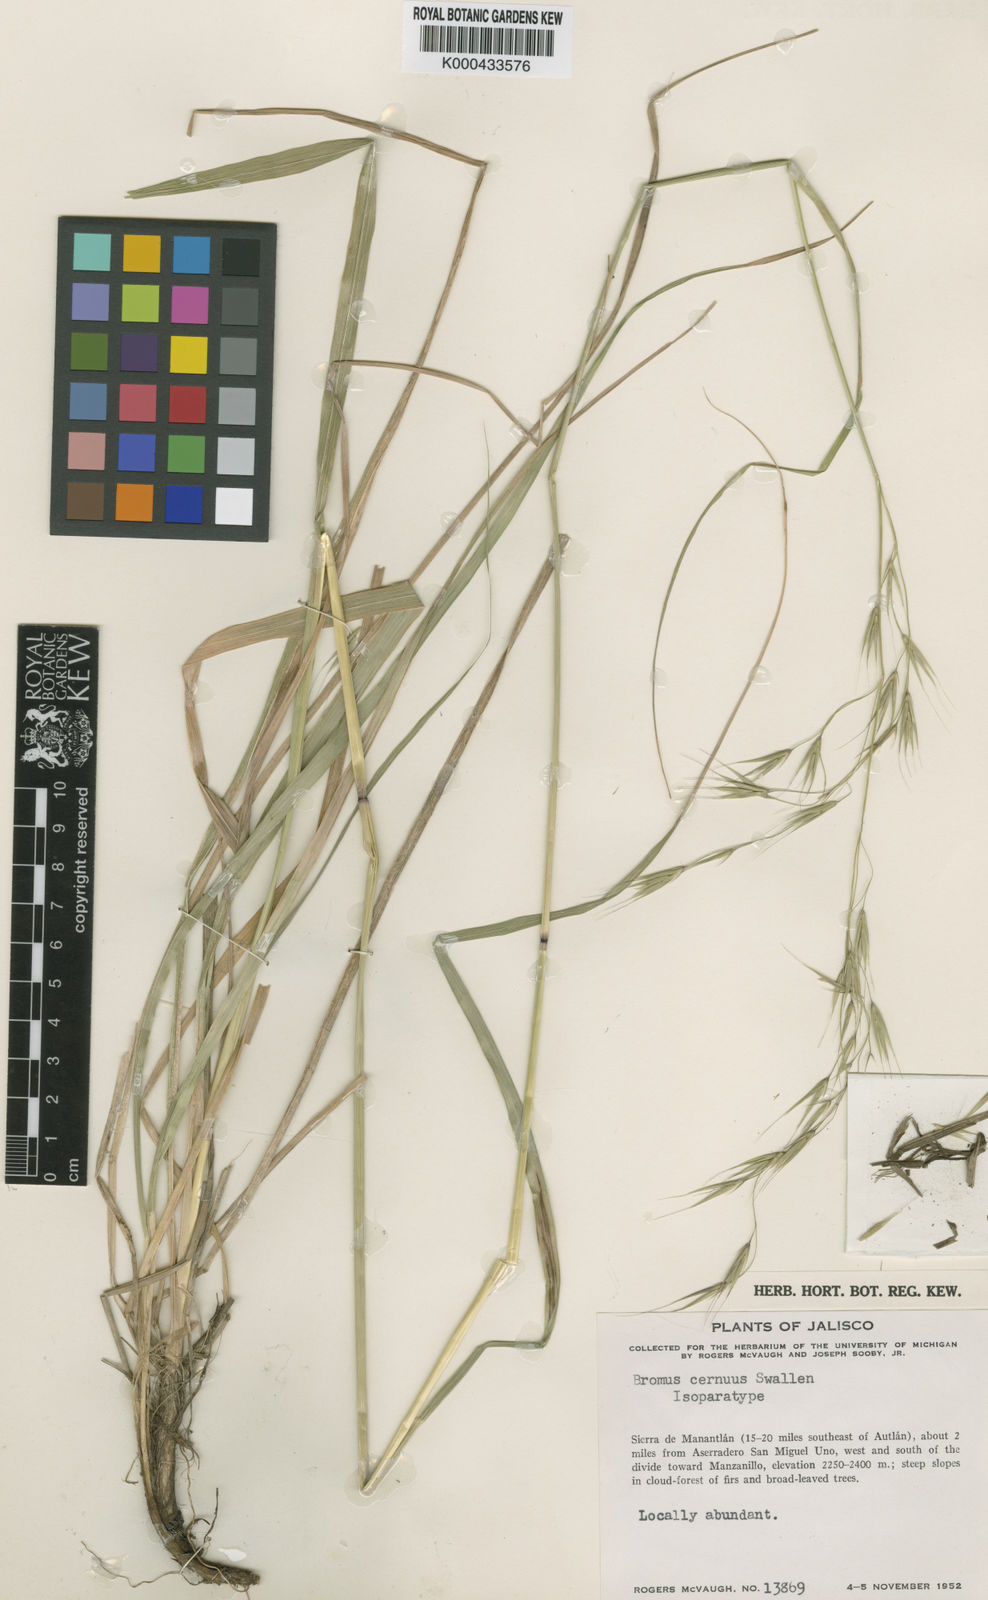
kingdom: Plantae
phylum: Tracheophyta
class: Liliopsida
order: Poales
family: Poaceae
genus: Festuca
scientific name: Festuca breviglumis
